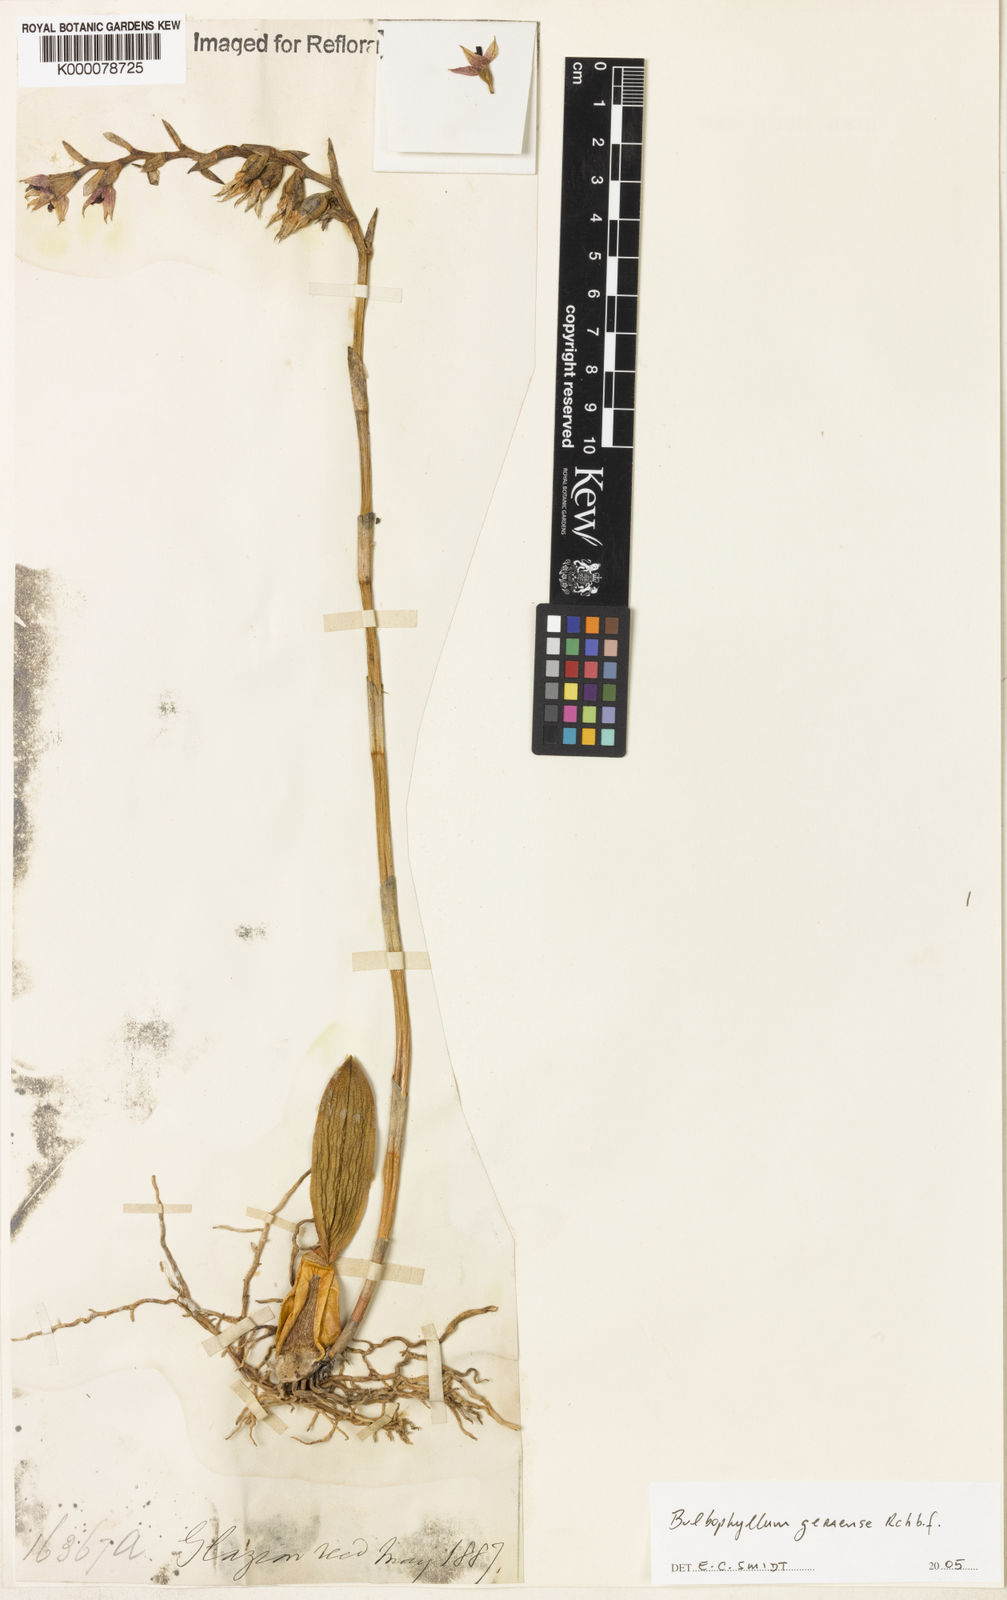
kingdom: Plantae
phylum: Tracheophyta
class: Liliopsida
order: Asparagales
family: Orchidaceae
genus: Bulbophyllum
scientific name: Bulbophyllum
